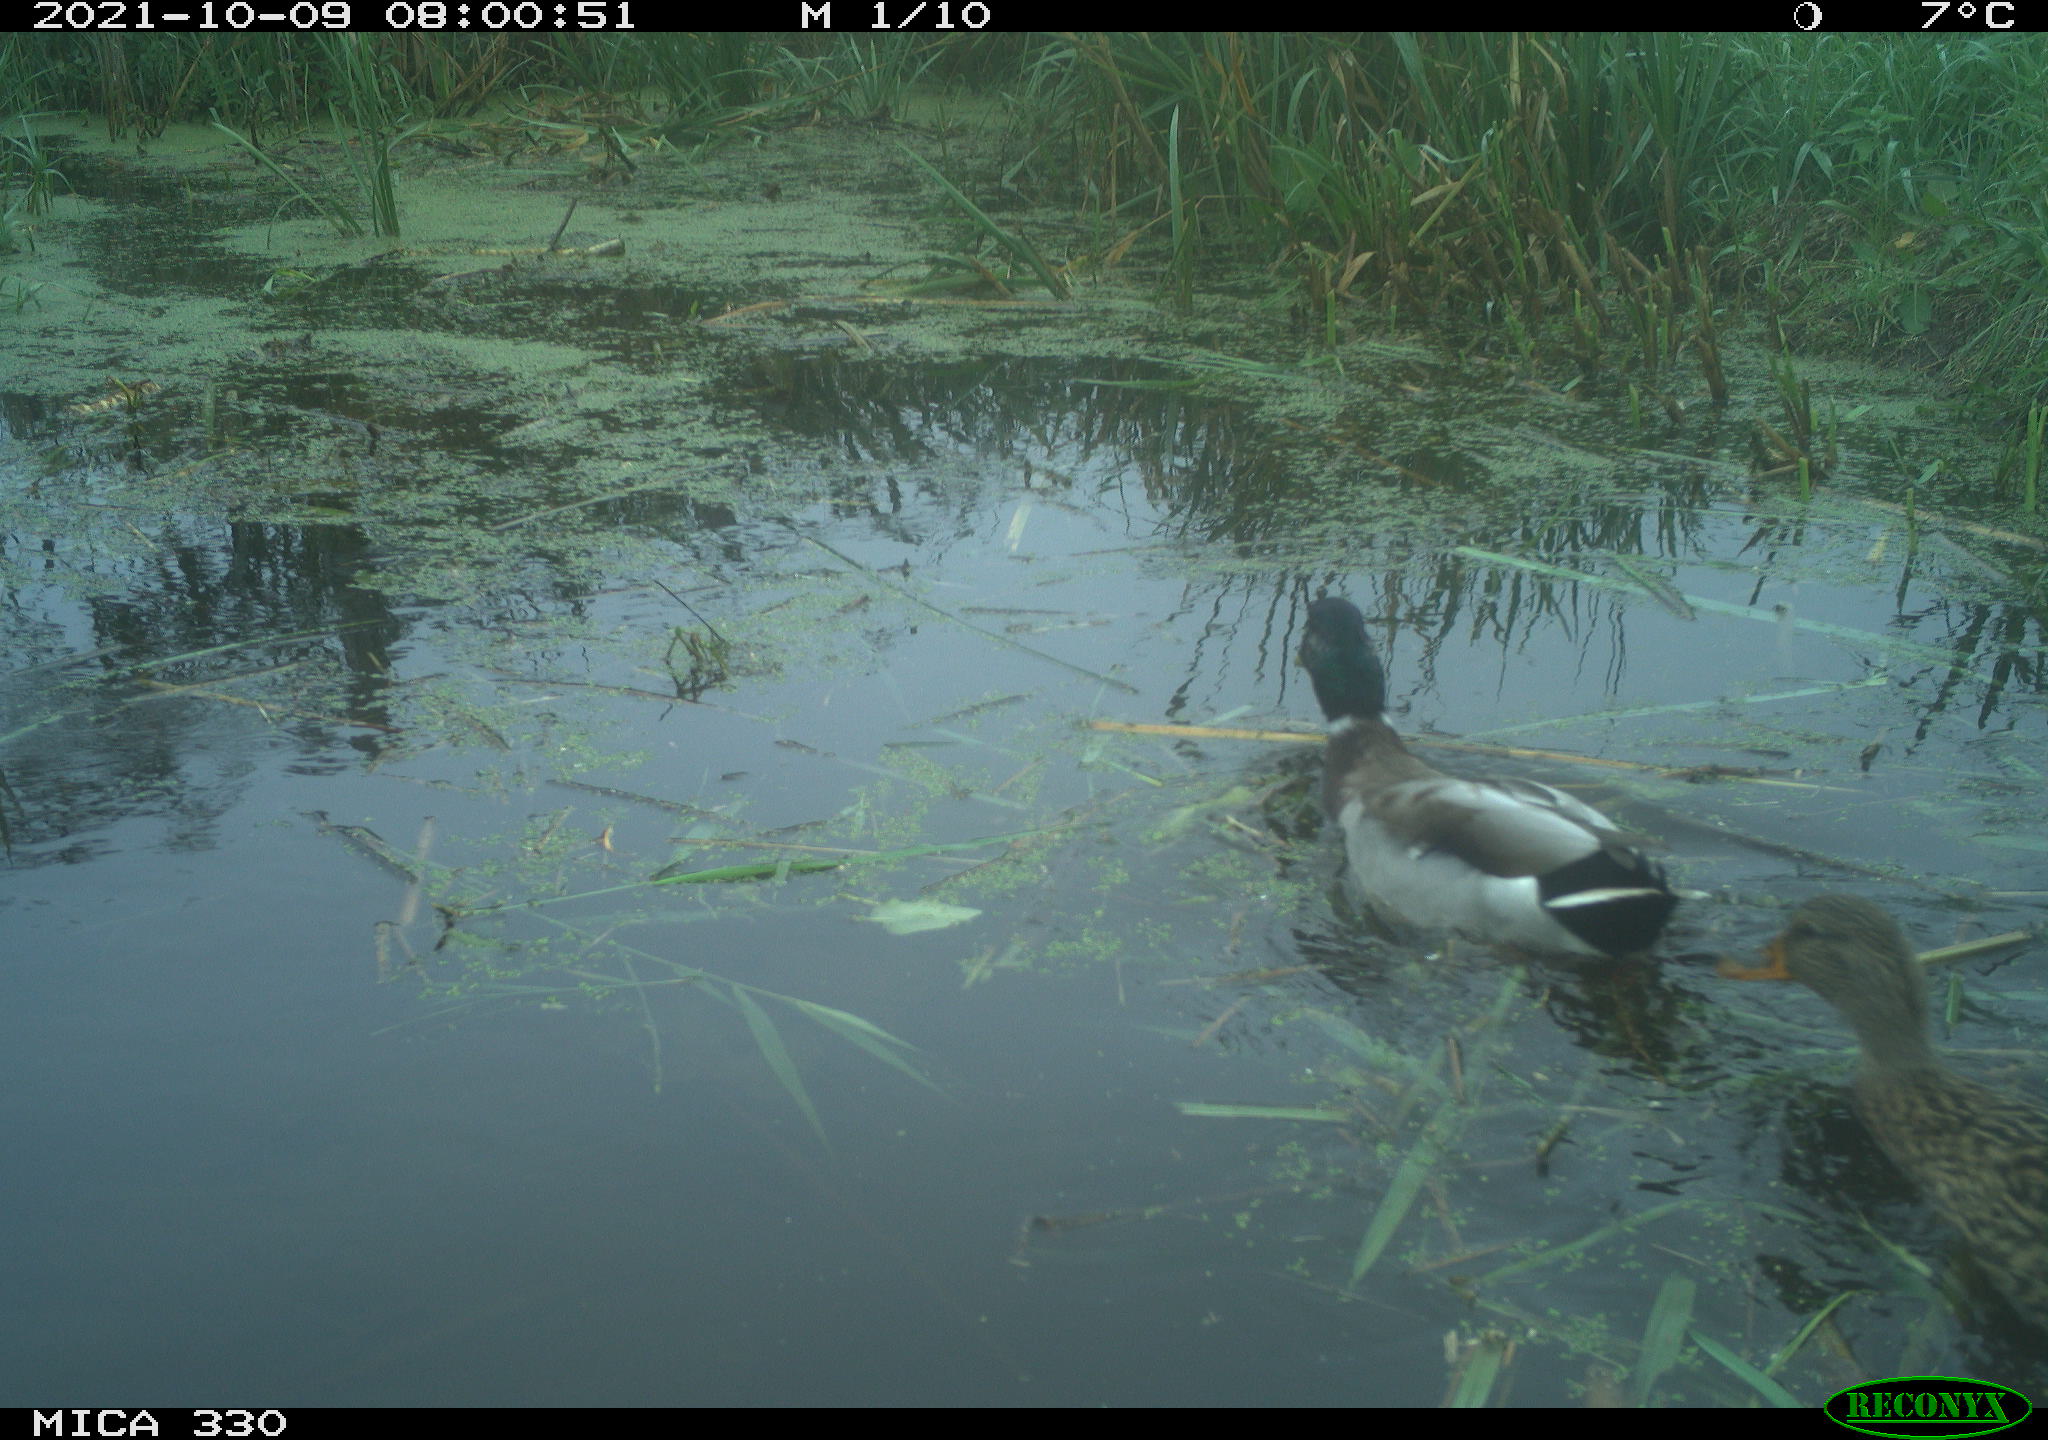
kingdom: Animalia
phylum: Chordata
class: Aves
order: Anseriformes
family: Anatidae
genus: Anas
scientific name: Anas platyrhynchos
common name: Mallard
